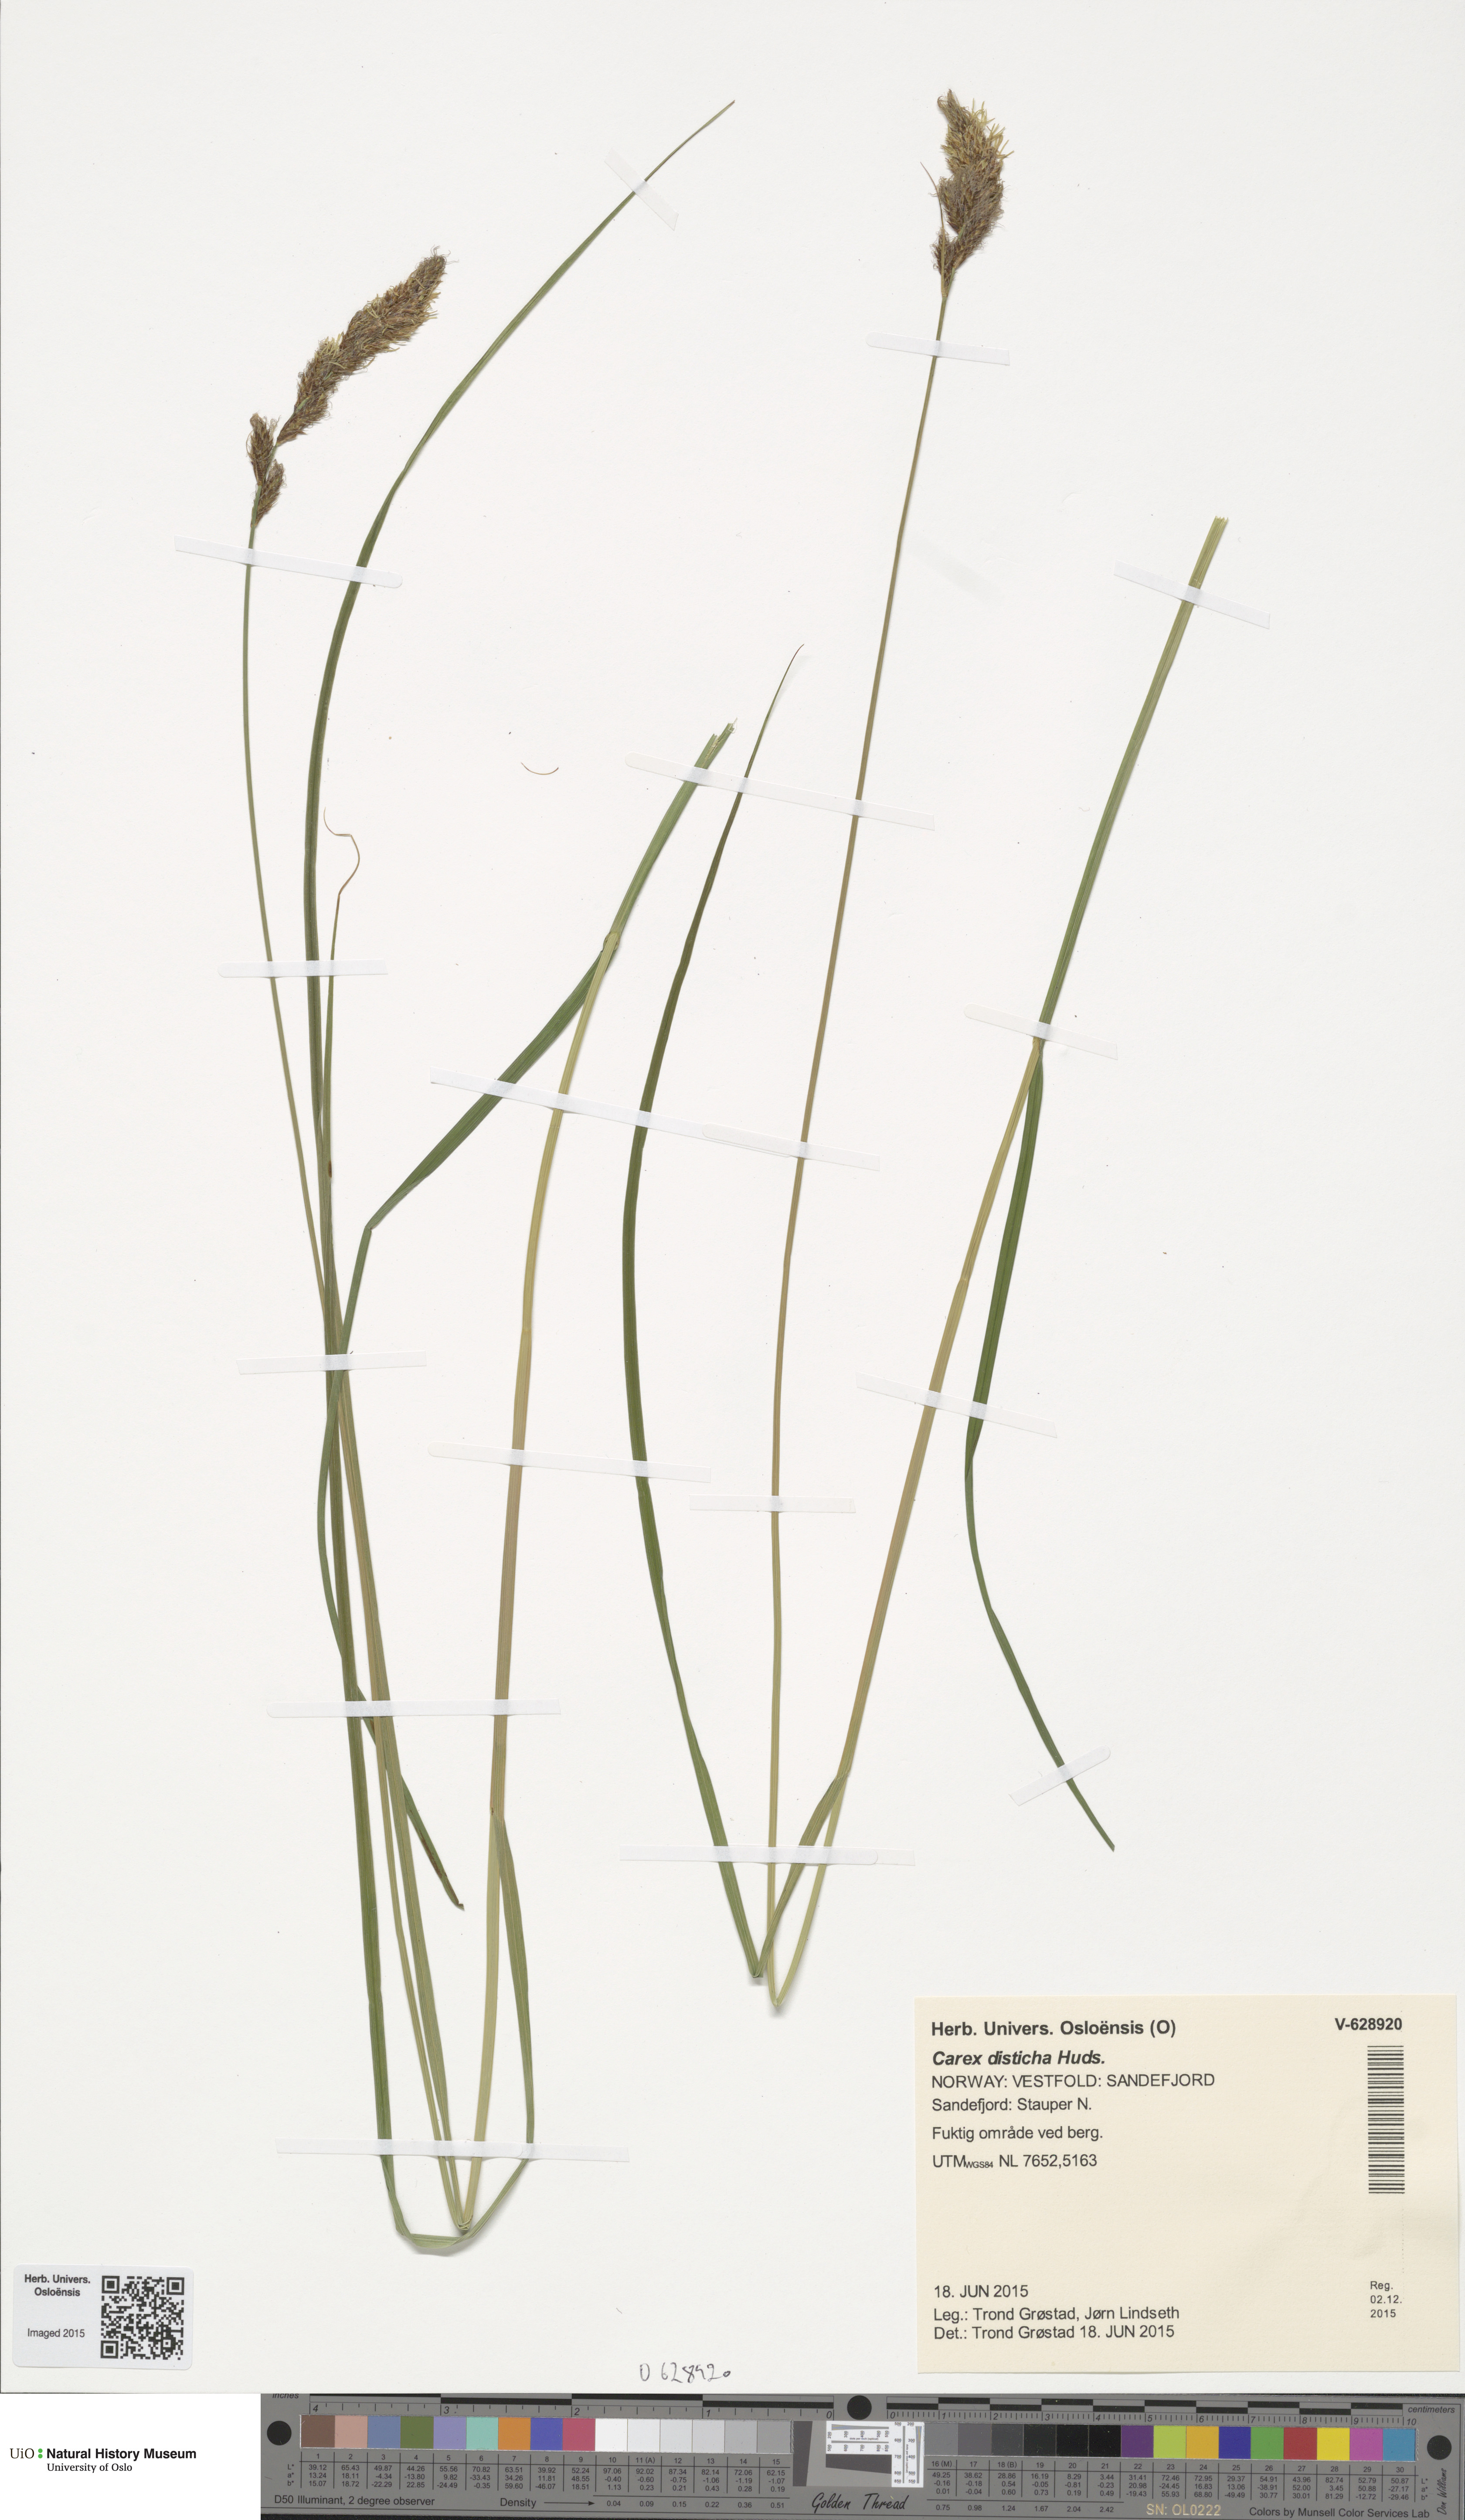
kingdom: Plantae
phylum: Tracheophyta
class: Liliopsida
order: Poales
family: Cyperaceae
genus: Carex
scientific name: Carex disticha
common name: Brown sedge
